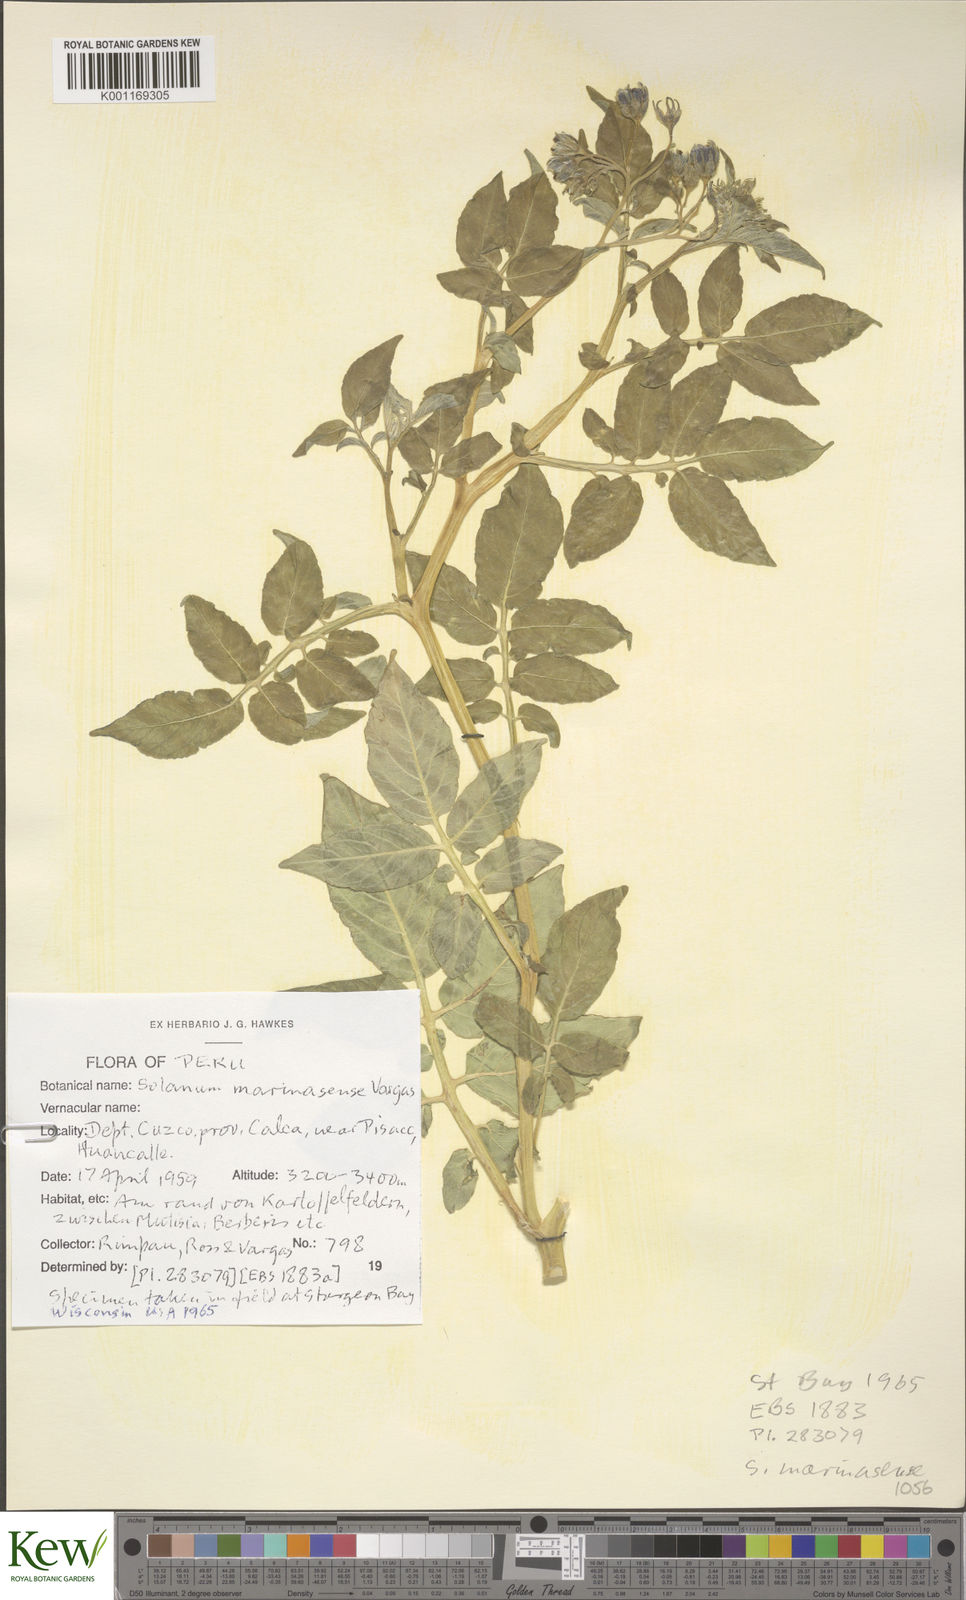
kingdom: Plantae
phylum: Tracheophyta
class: Magnoliopsida
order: Solanales
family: Solanaceae
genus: Solanum
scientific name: Solanum candolleanum
